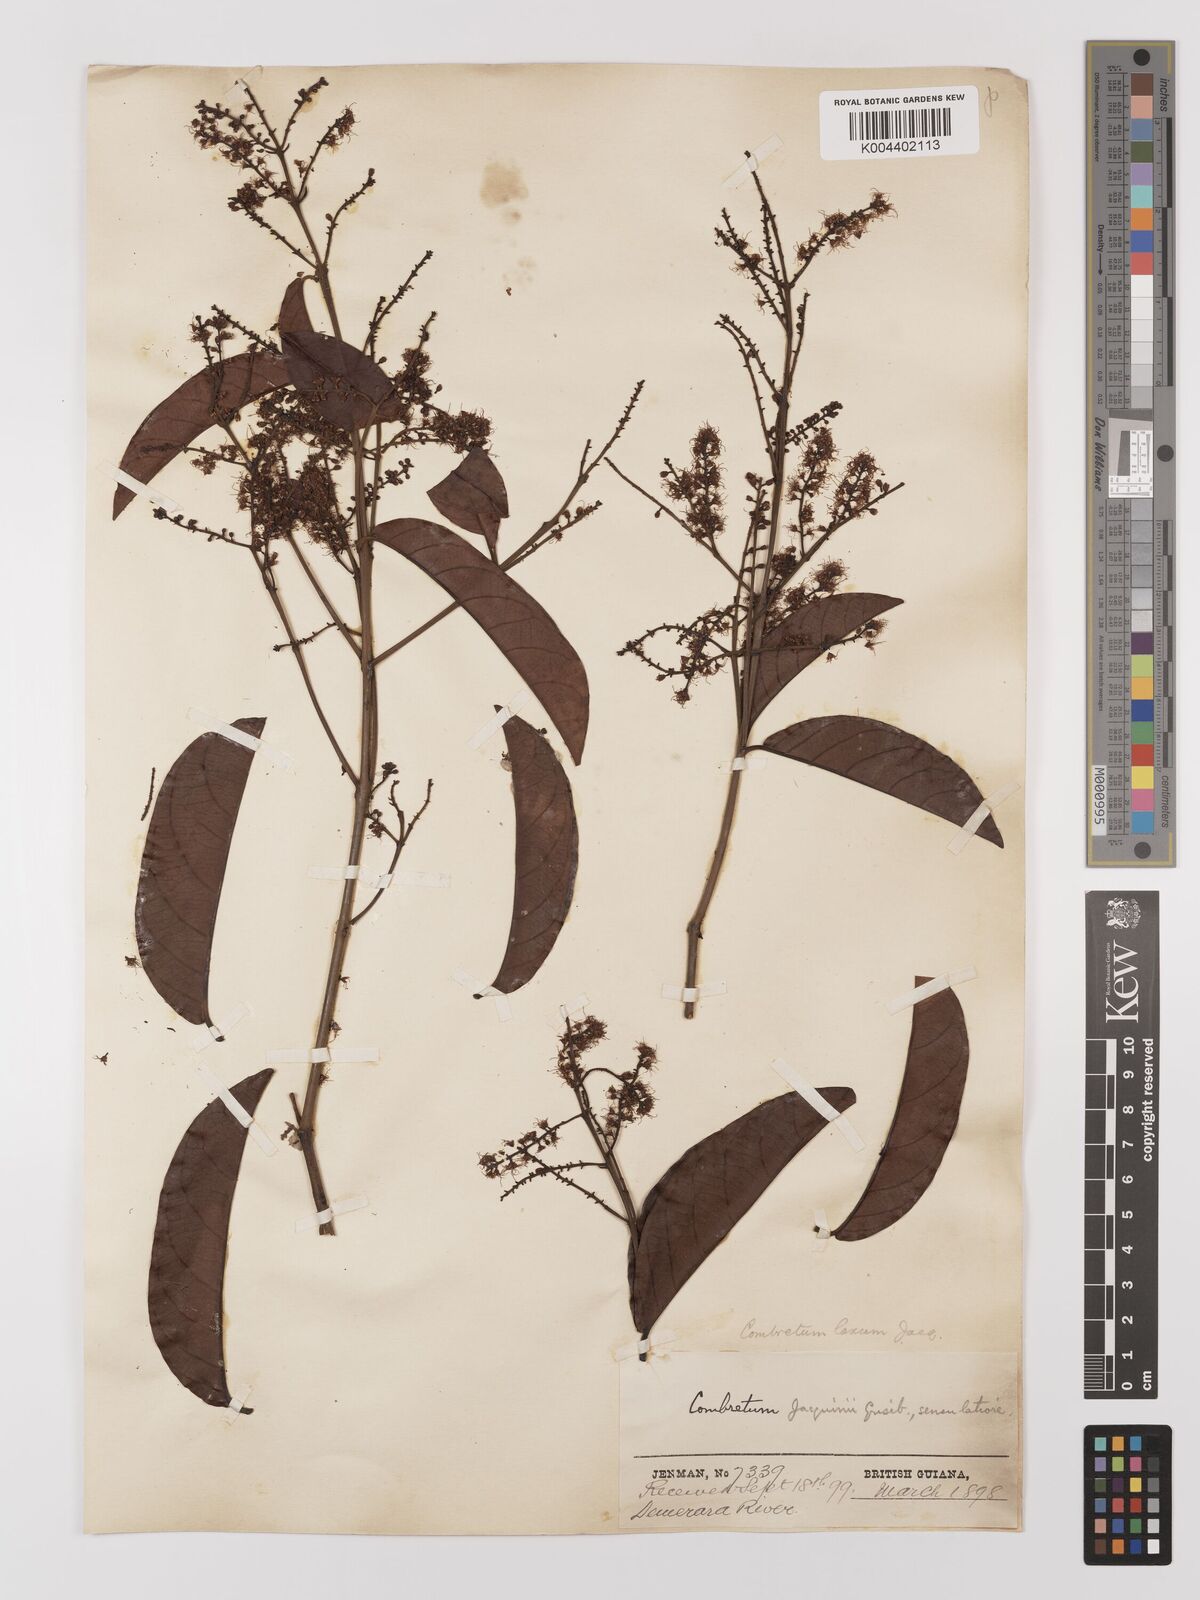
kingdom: Plantae
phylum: Tracheophyta
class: Magnoliopsida
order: Myrtales
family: Combretaceae
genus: Combretum
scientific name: Combretum
